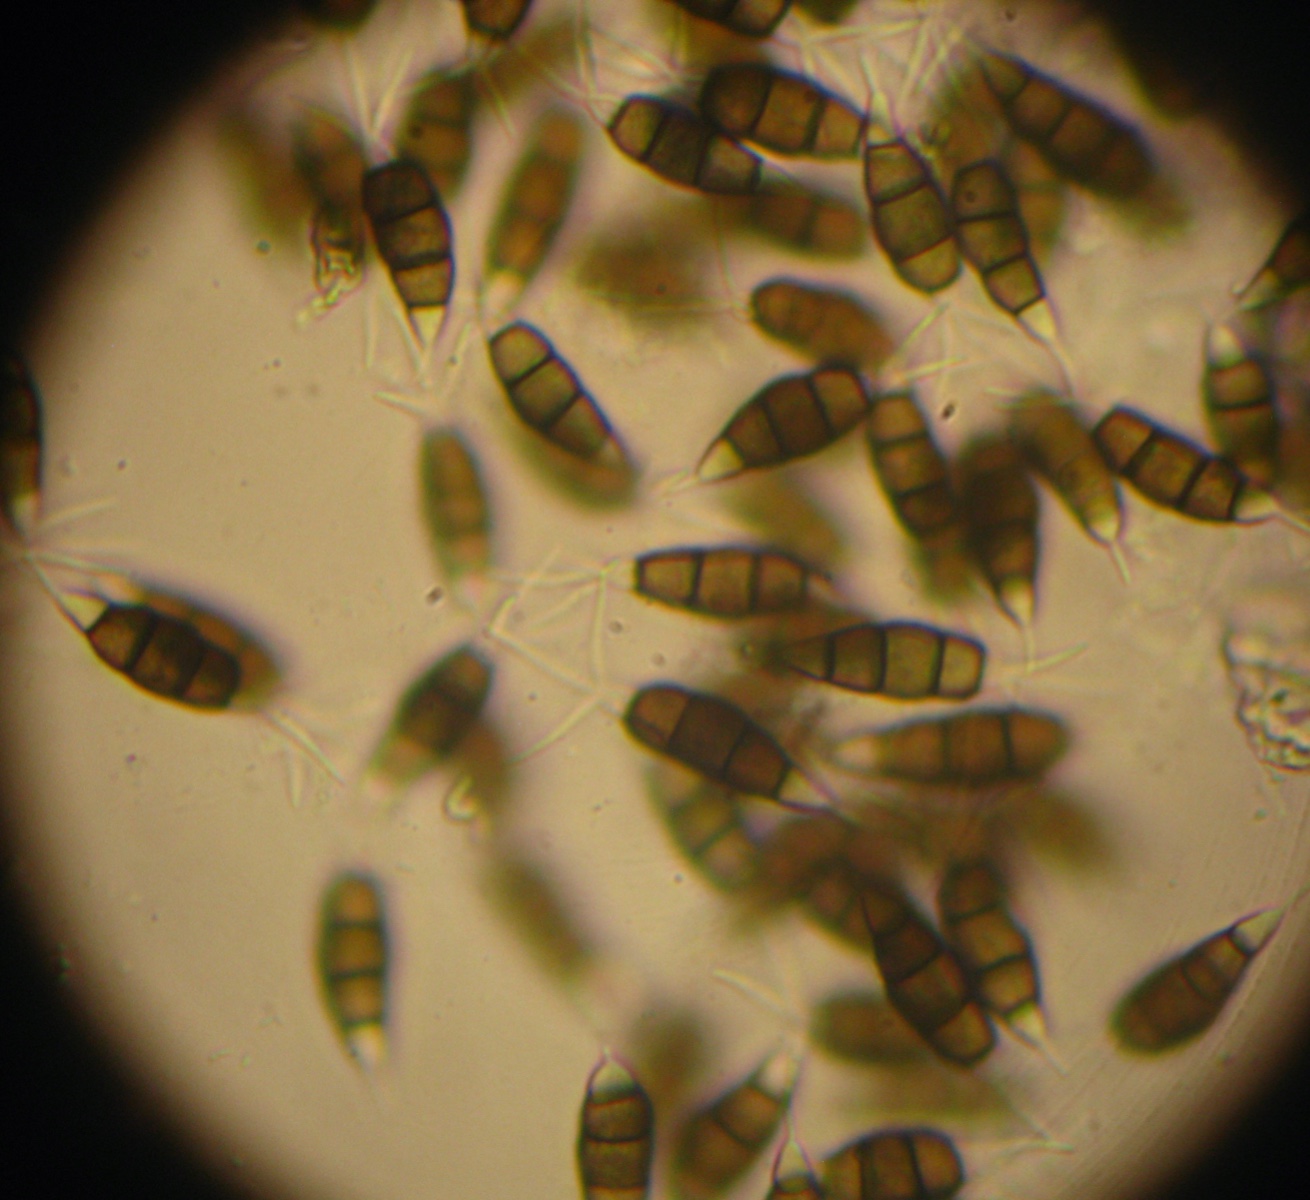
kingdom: Fungi
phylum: Ascomycota
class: Sordariomycetes
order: Amphisphaeriales
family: Pestalotiopsidaceae
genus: Pestalotiopsis
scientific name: Pestalotiopsis funerea
